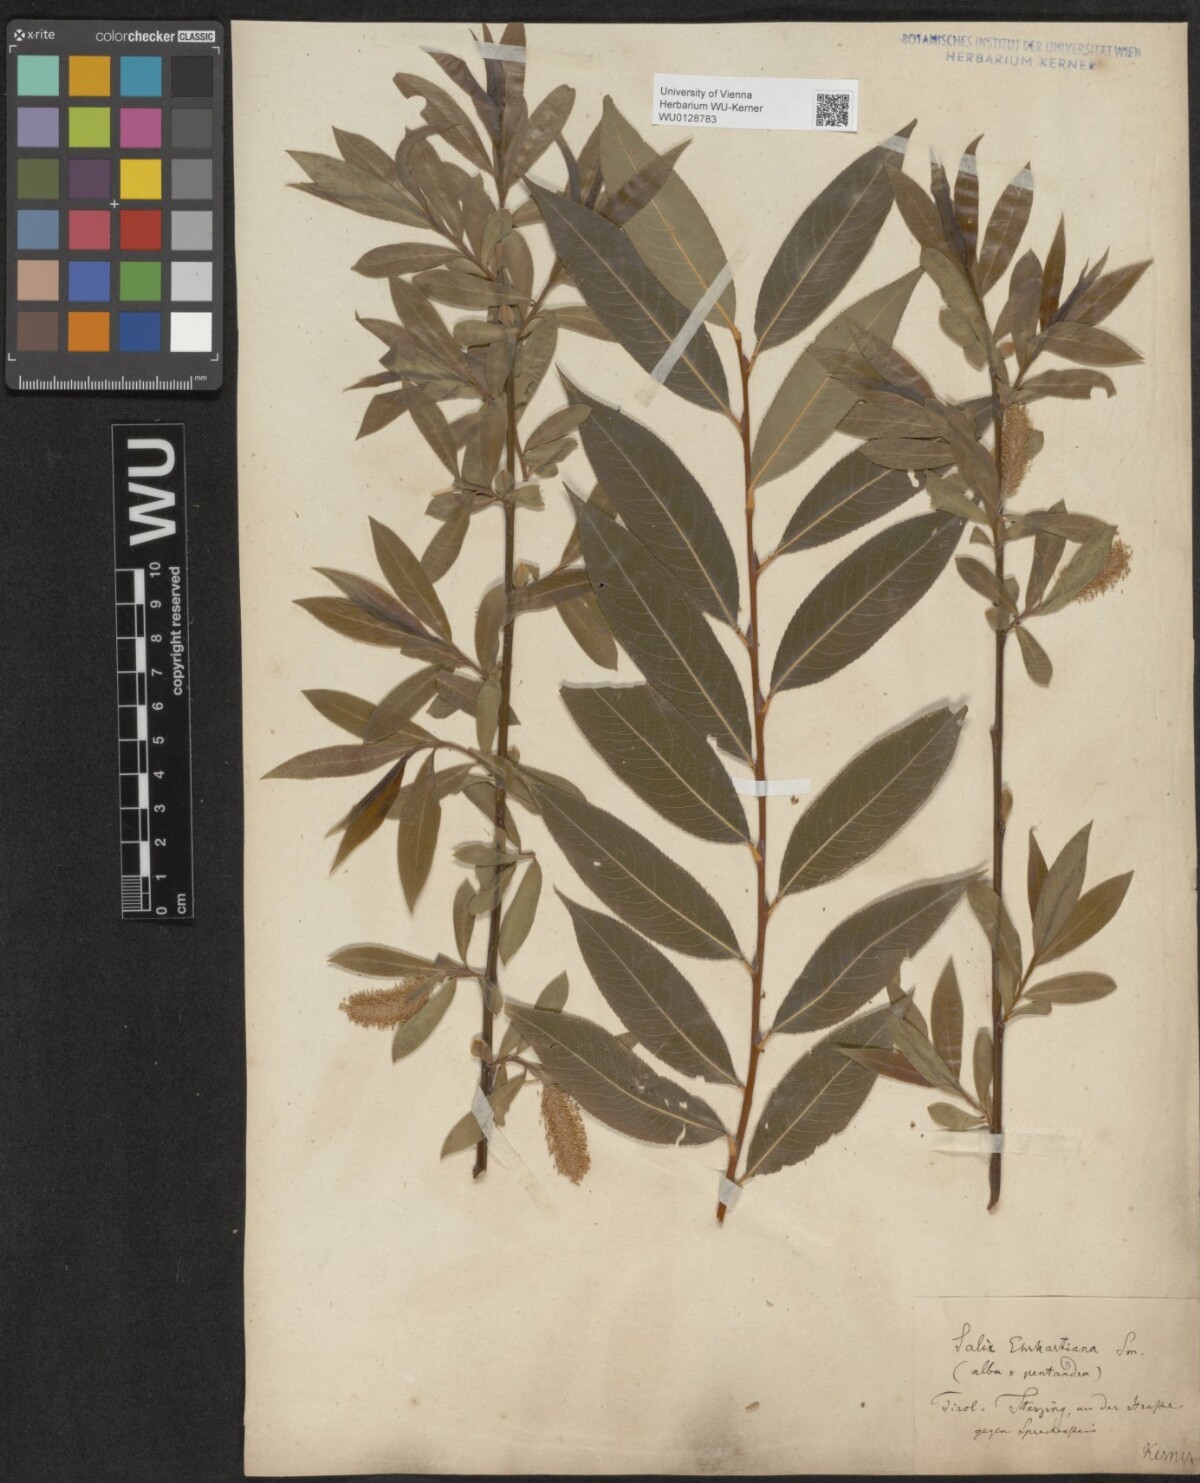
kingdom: Plantae
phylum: Tracheophyta
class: Magnoliopsida
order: Malpighiales
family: Salicaceae
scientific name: Salicaceae
